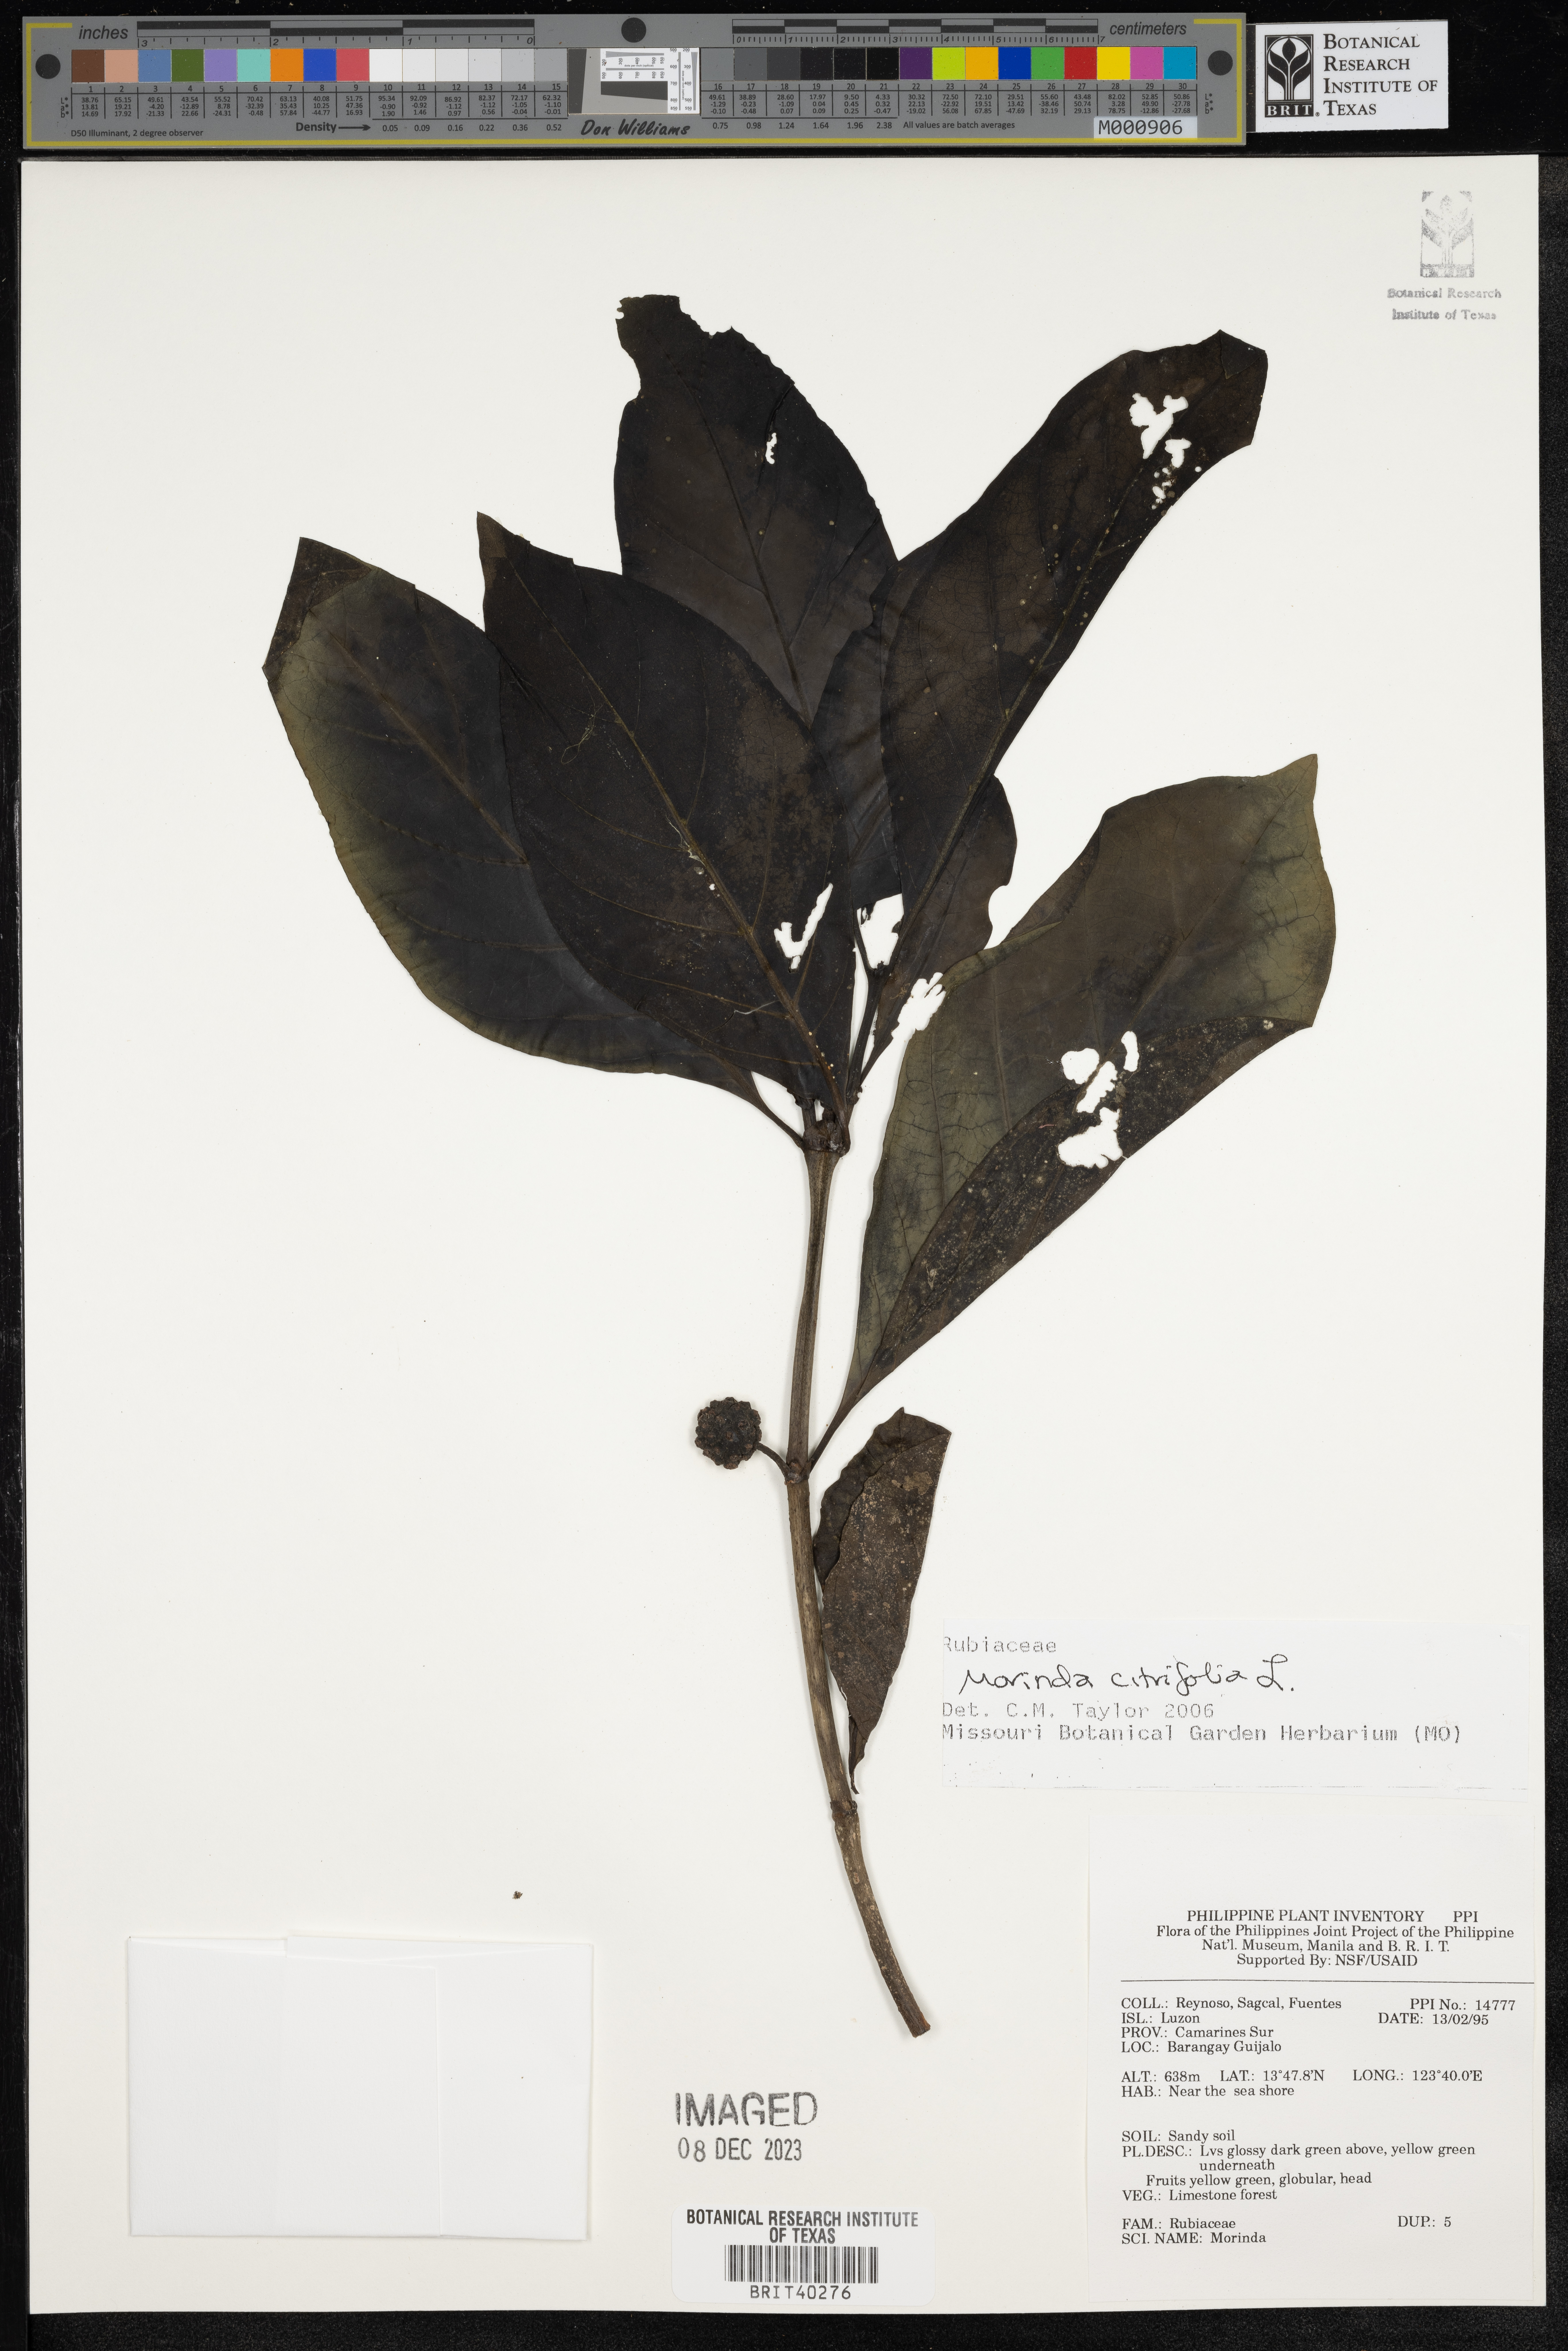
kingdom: Plantae
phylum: Tracheophyta
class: Magnoliopsida
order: Gentianales
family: Rubiaceae
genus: Morinda
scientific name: Morinda citrifolia
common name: Indian-mulberry
